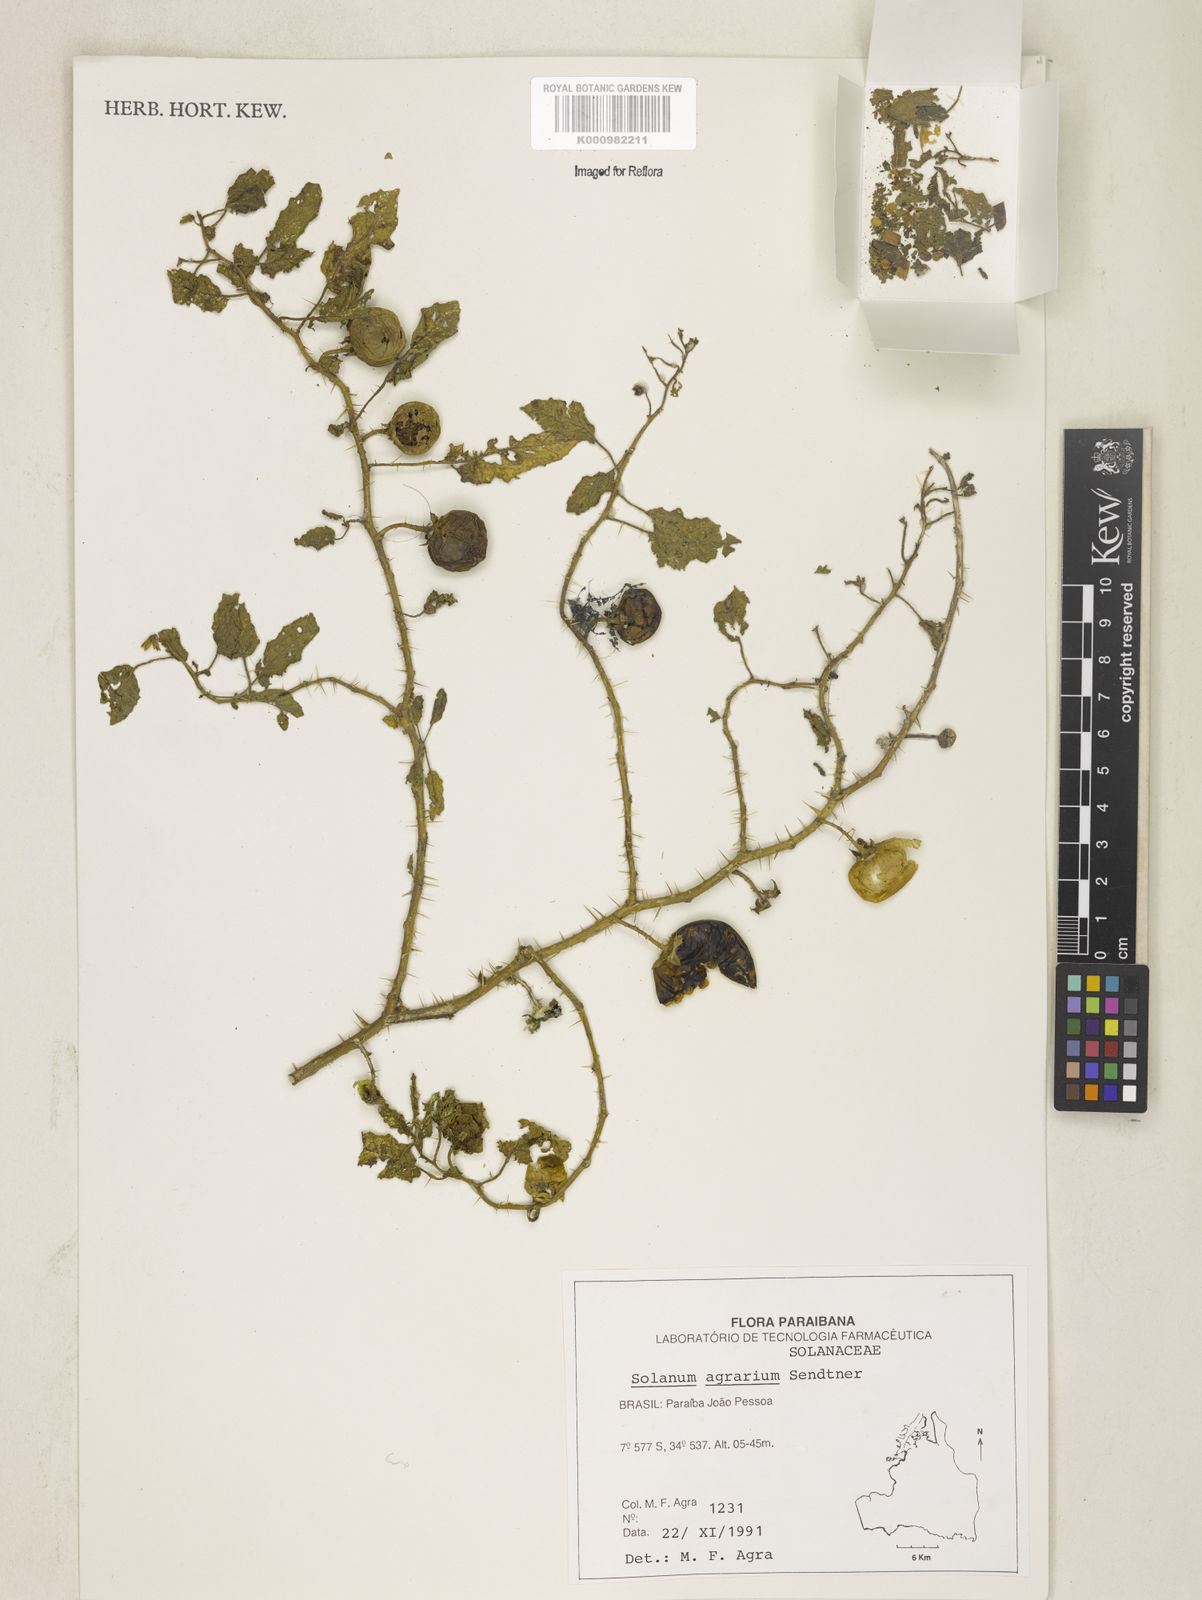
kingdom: Plantae
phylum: Tracheophyta
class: Magnoliopsida
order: Solanales
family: Solanaceae
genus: Solanum
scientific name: Solanum agrarium
